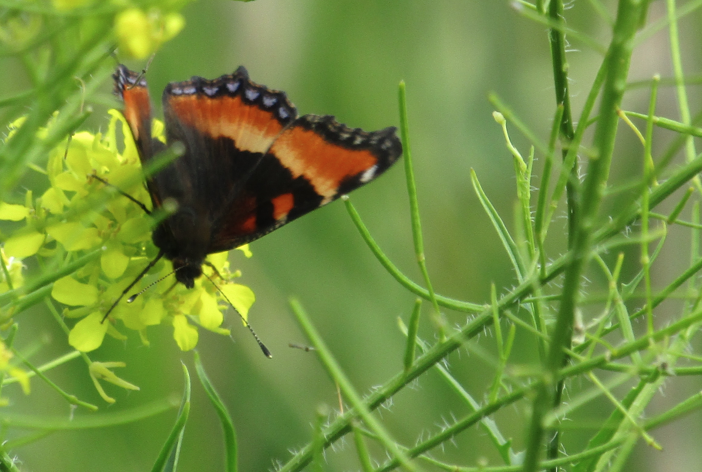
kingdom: Animalia
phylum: Arthropoda
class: Insecta
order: Lepidoptera
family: Nymphalidae
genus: Aglais
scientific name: Aglais milberti
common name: Milbert's Tortoiseshell
